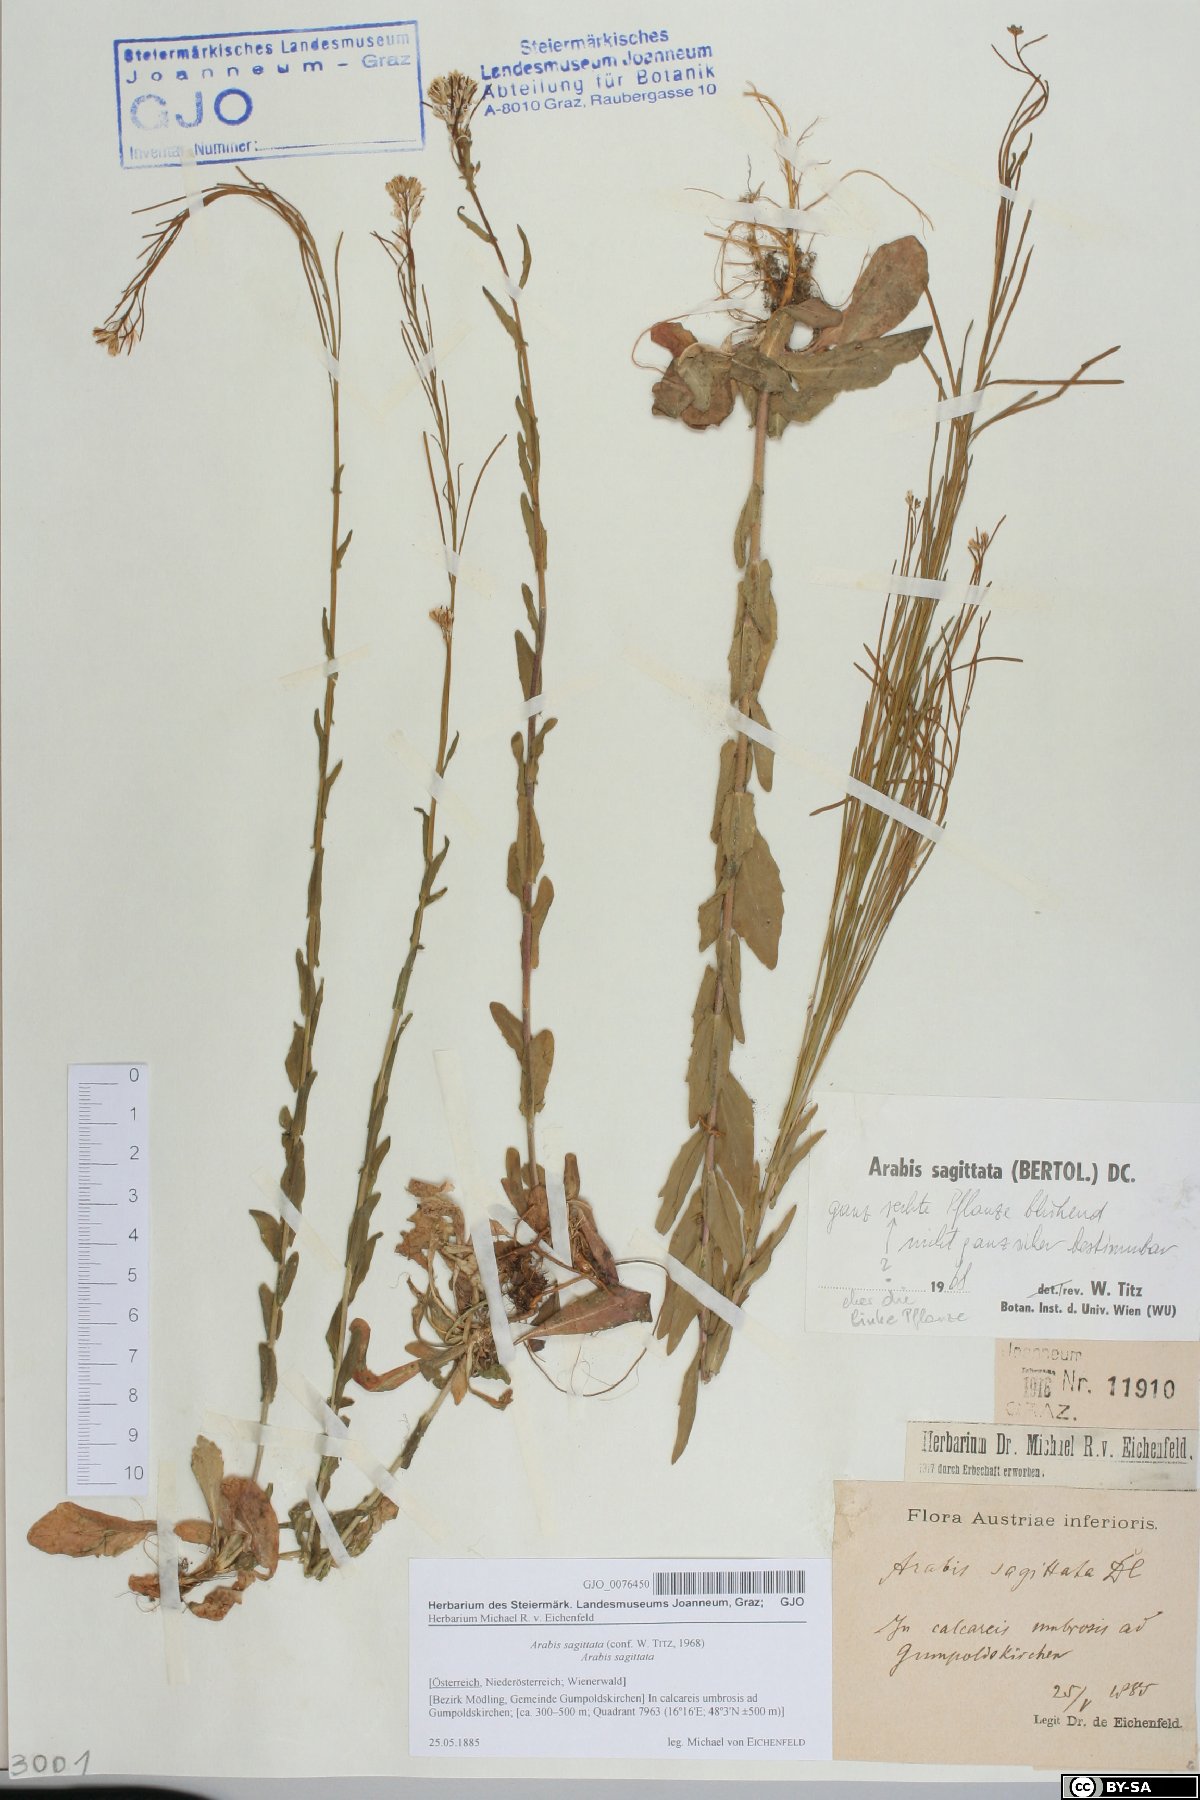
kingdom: Plantae
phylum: Tracheophyta
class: Magnoliopsida
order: Brassicales
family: Brassicaceae
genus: Arabis
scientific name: Arabis sagittata
